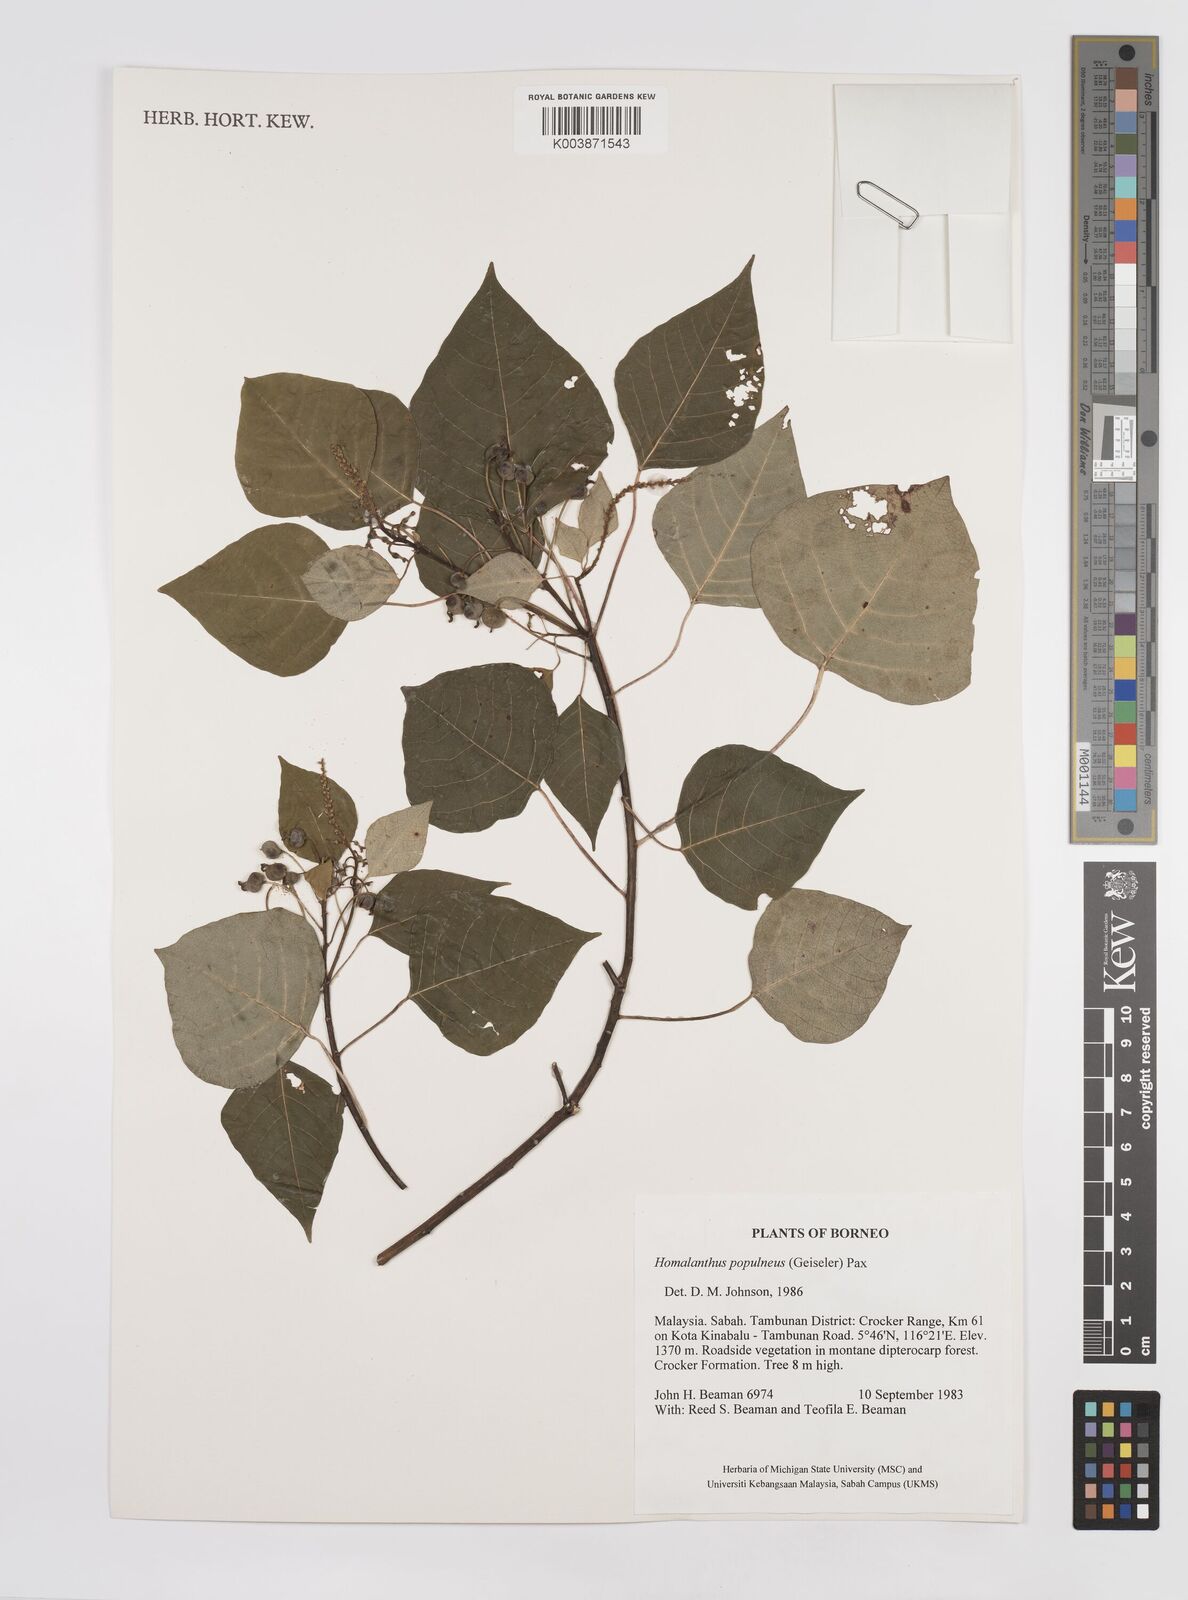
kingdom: Plantae
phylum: Tracheophyta
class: Magnoliopsida
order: Malpighiales
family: Euphorbiaceae
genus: Homalanthus
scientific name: Homalanthus populneus
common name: Spurge
